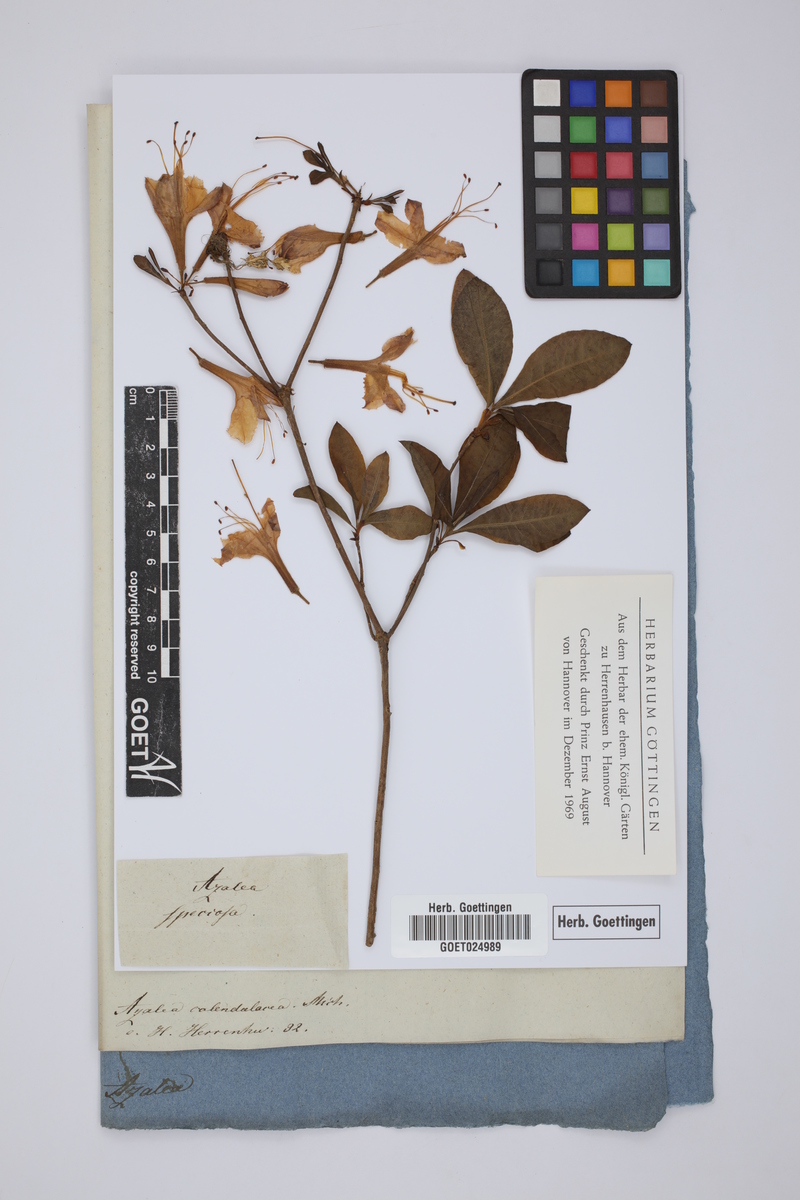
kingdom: Plantae
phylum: Tracheophyta
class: Magnoliopsida
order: Ericales
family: Ericaceae
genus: Rhododendron
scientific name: Rhododendron calendulaceum
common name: Flame azalea
